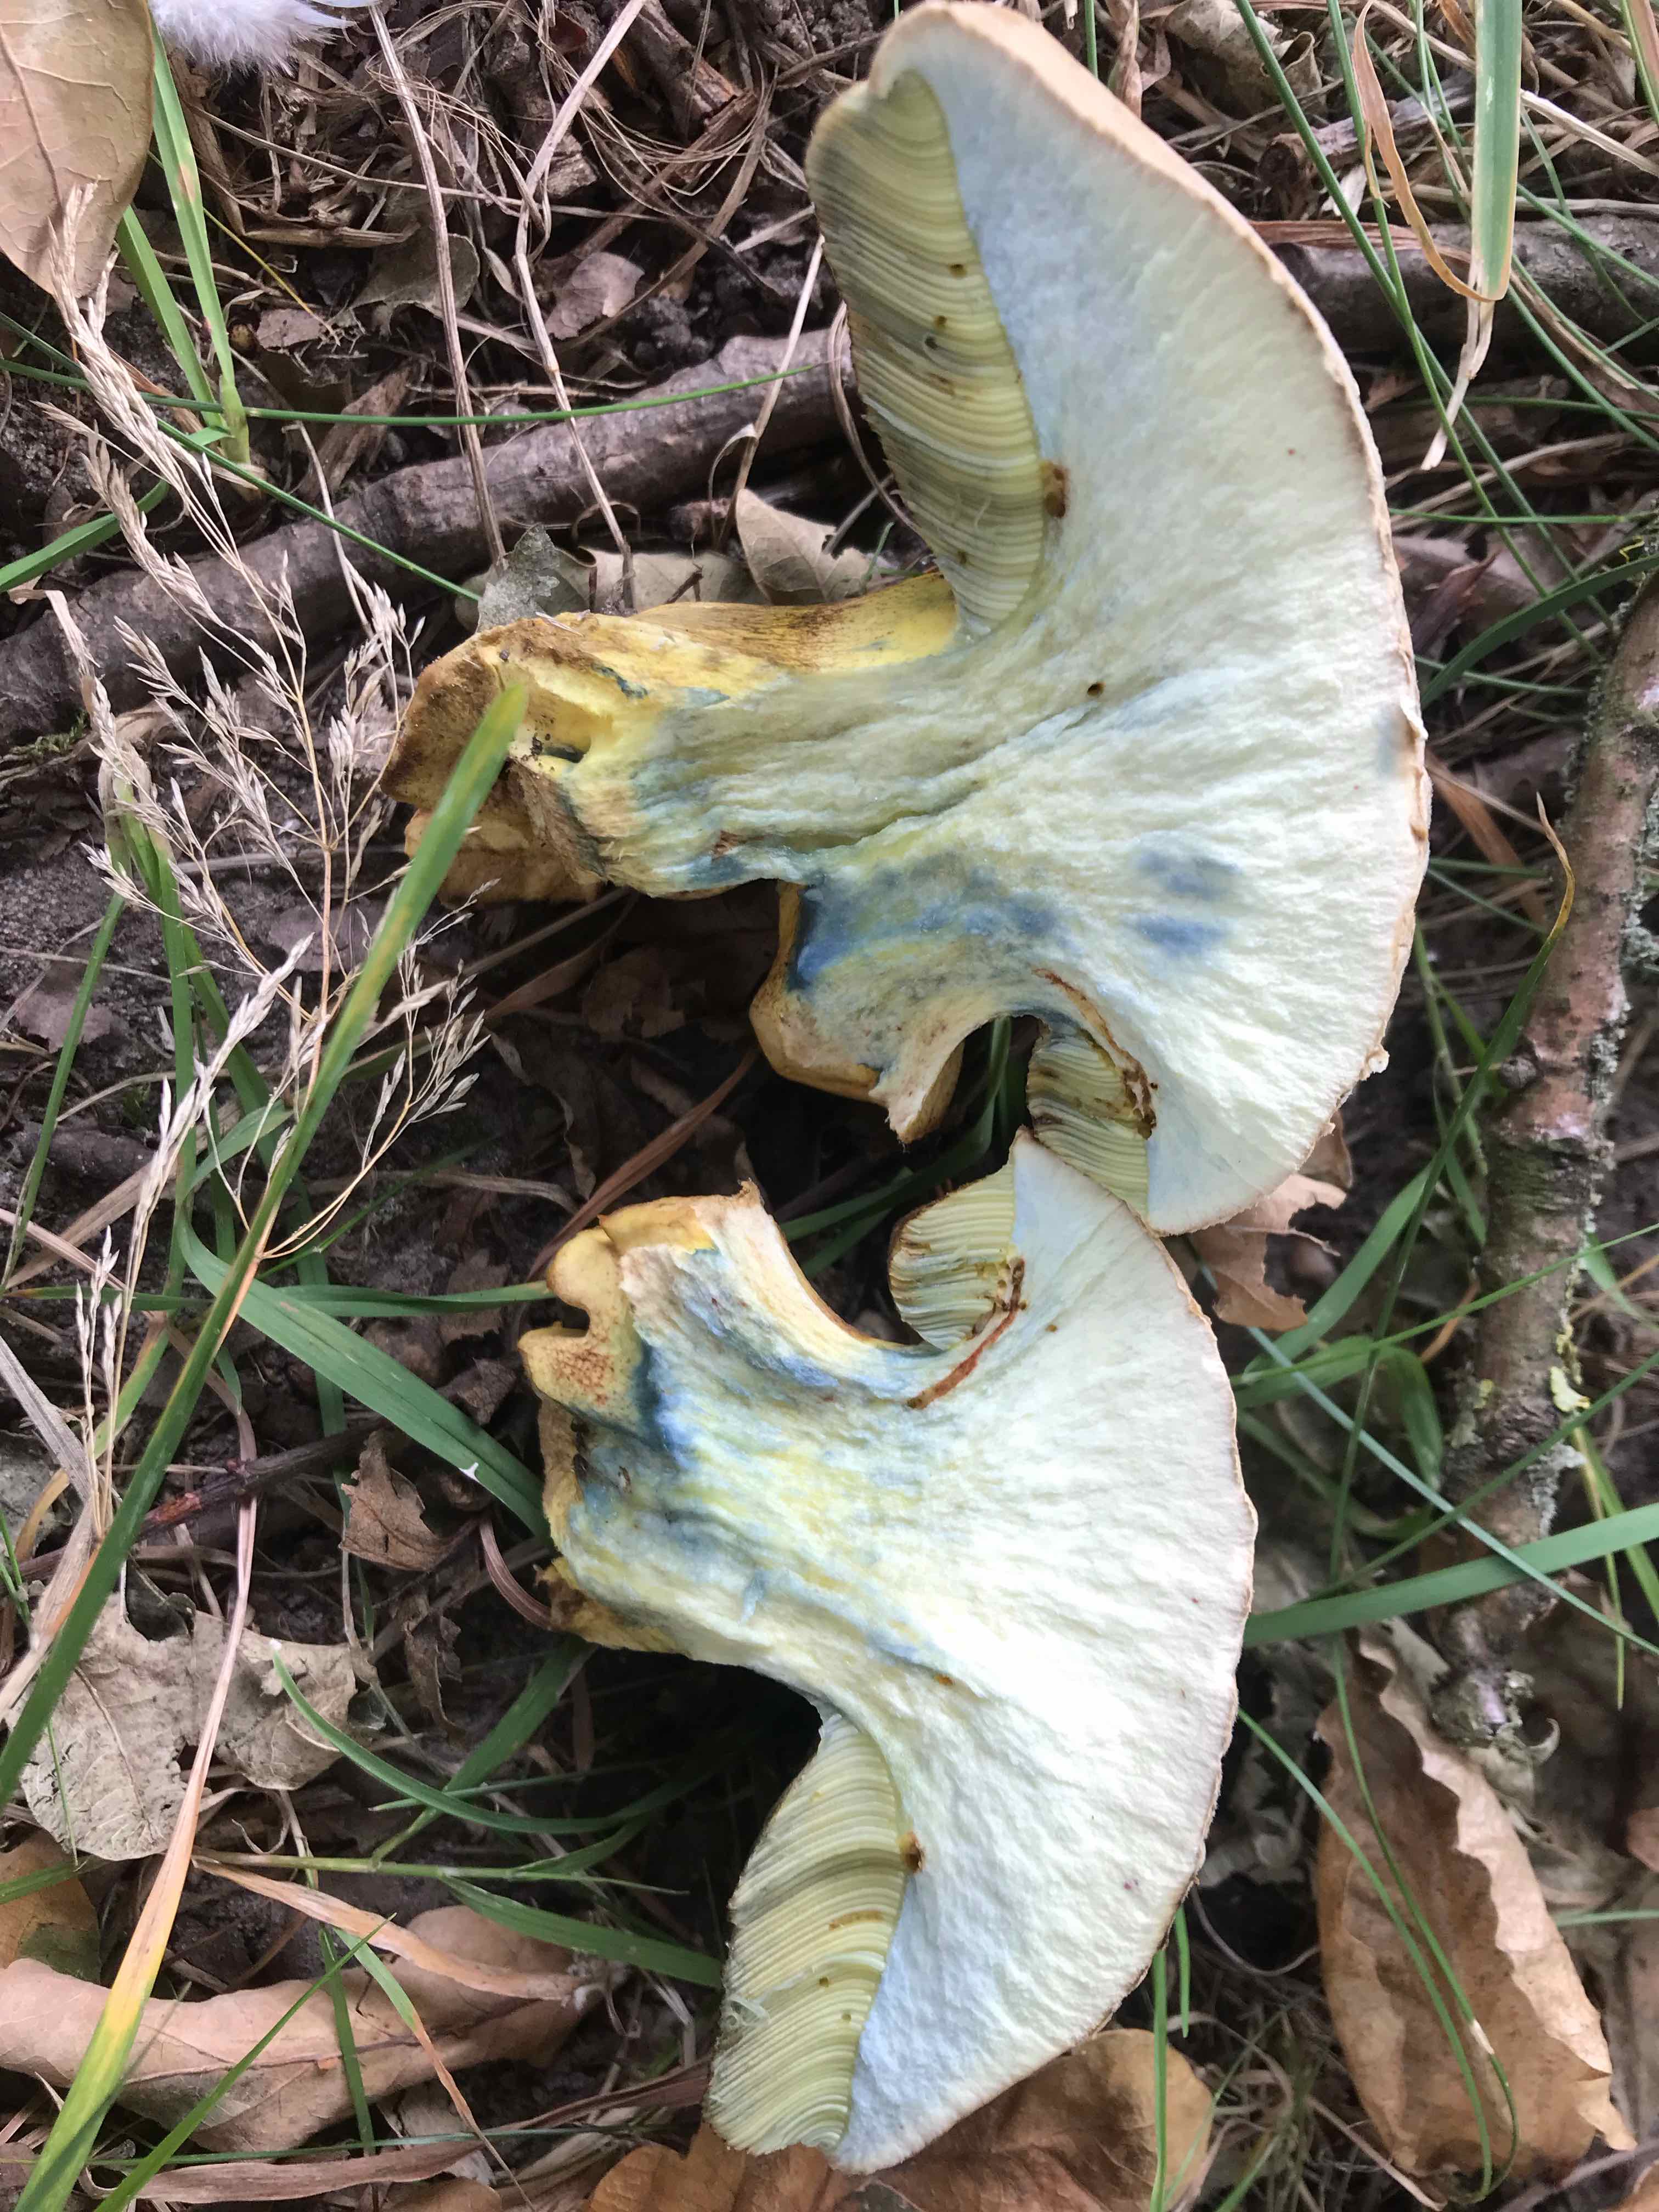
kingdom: Fungi
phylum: Basidiomycota
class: Agaricomycetes
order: Boletales
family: Boletaceae
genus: Caloboletus
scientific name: Caloboletus radicans
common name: rod-rørhat
